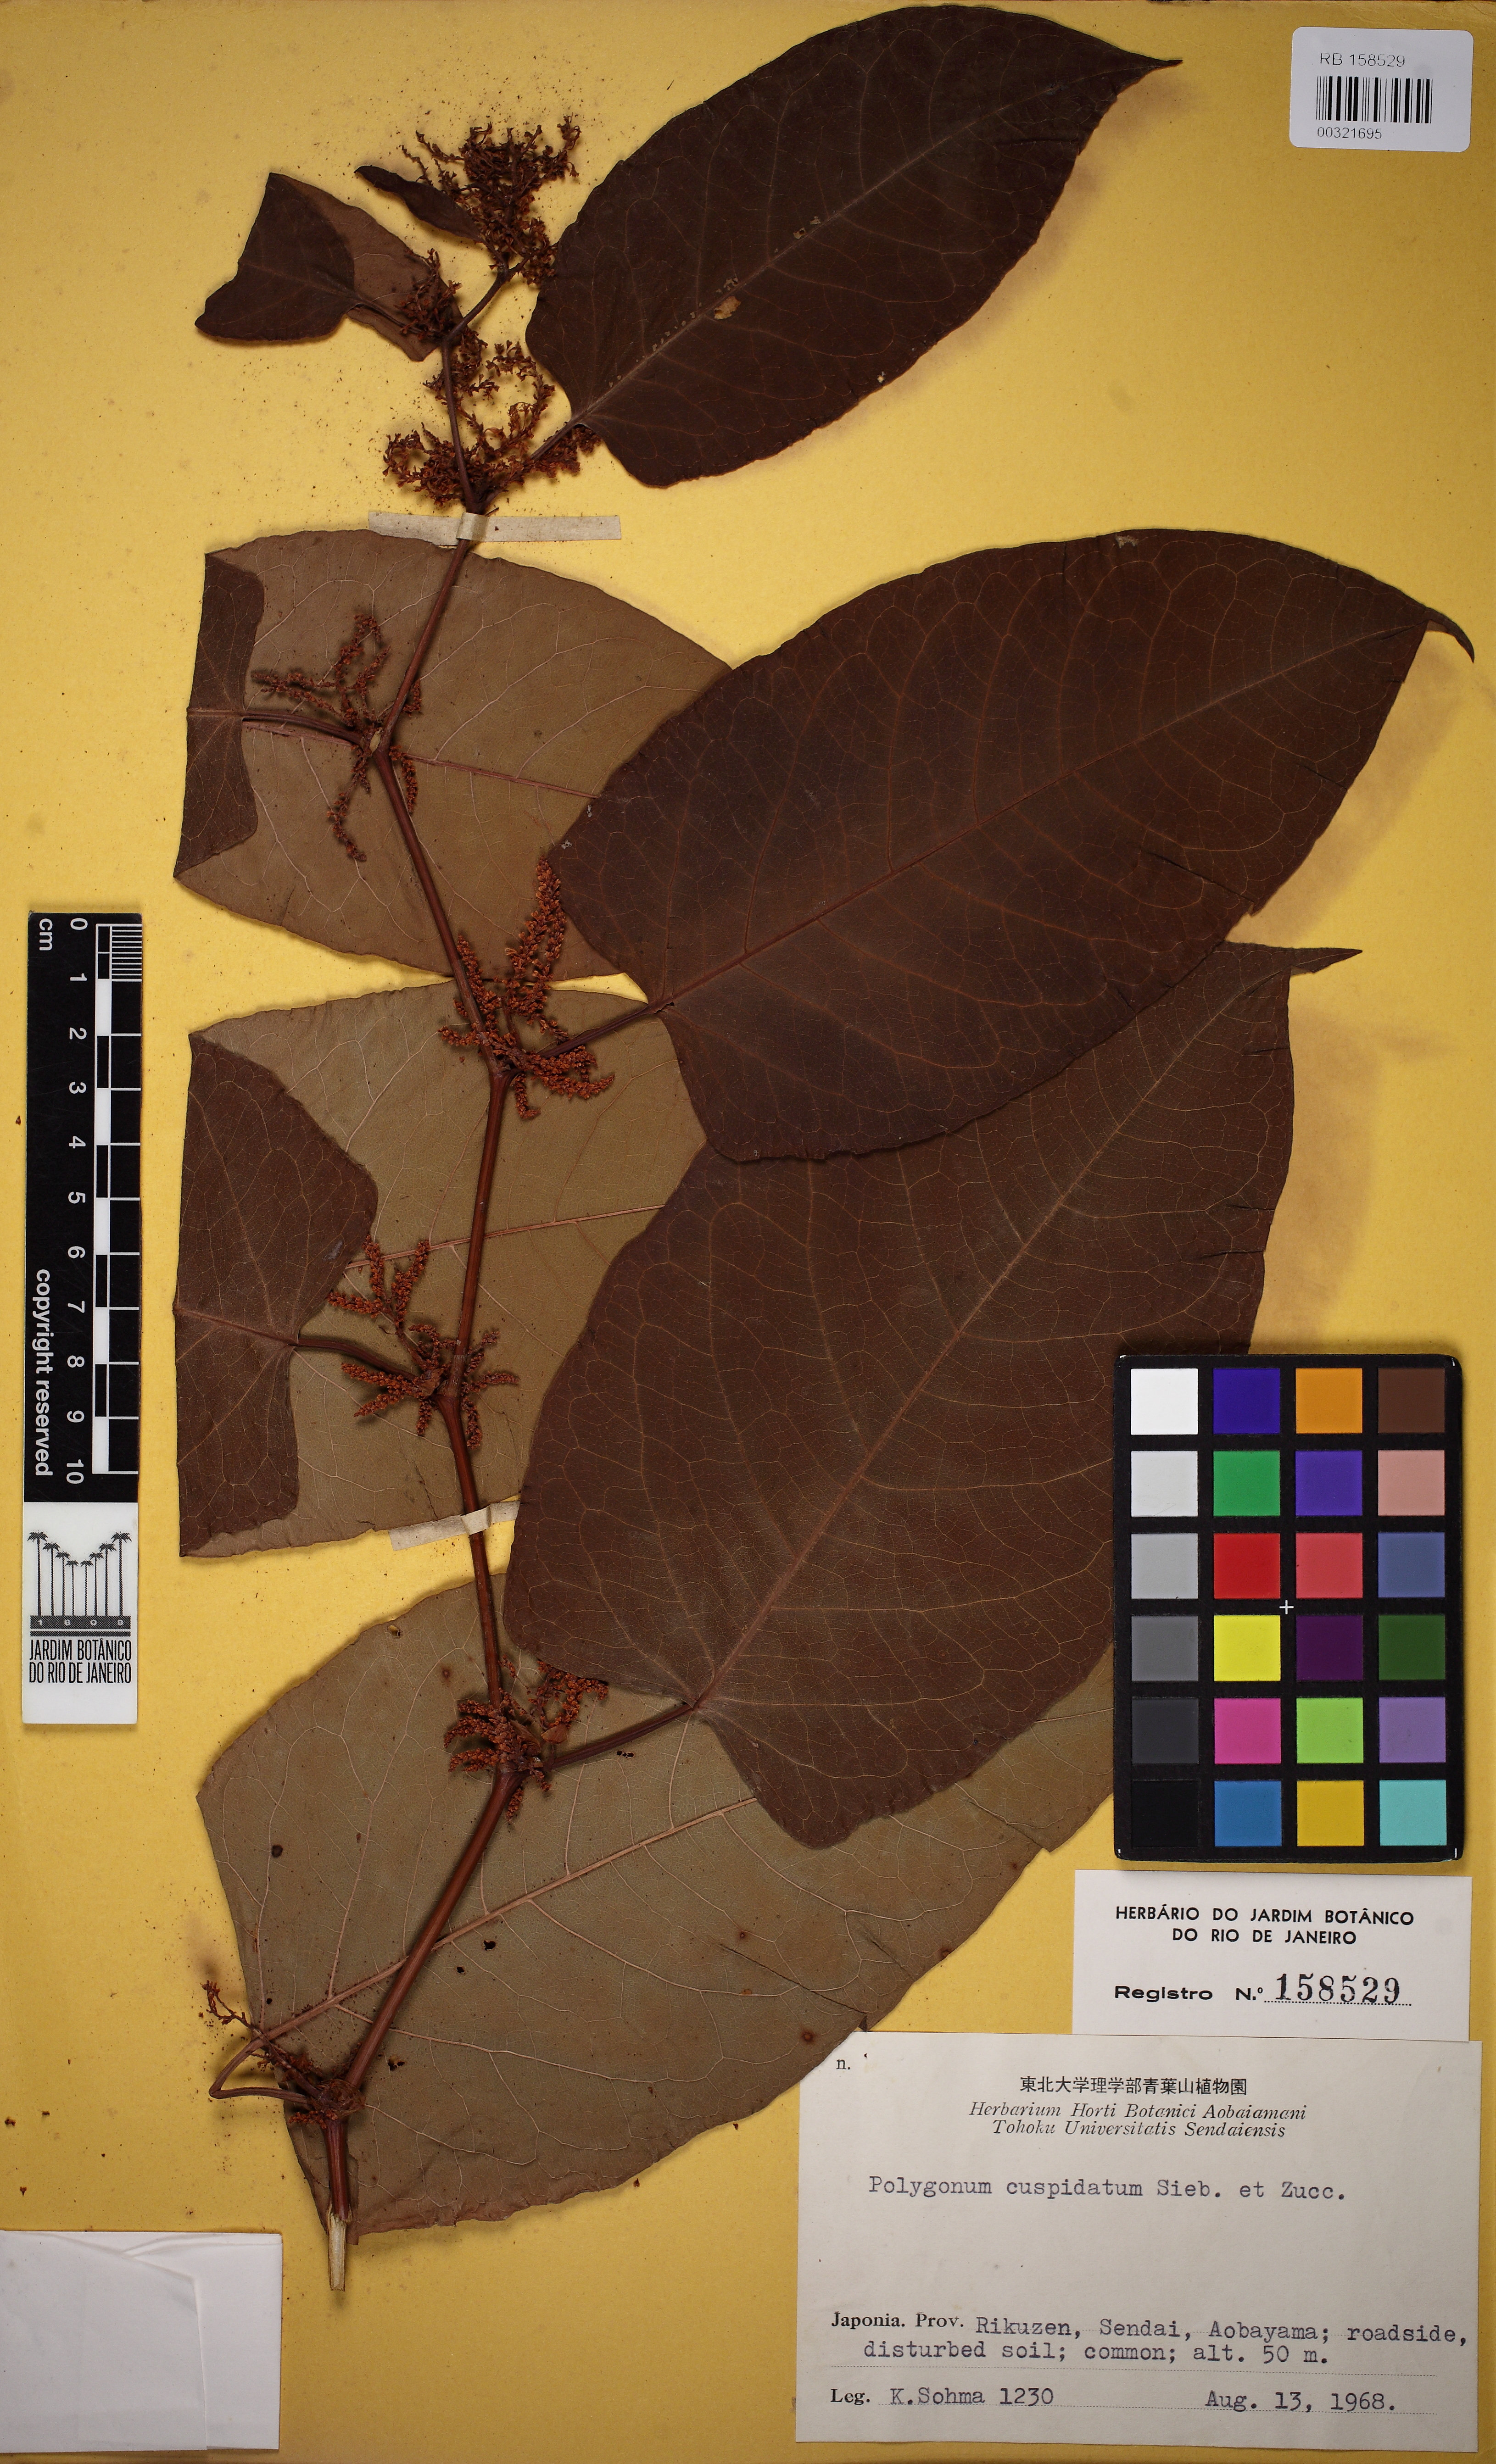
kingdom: Plantae
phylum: Tracheophyta
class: Magnoliopsida
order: Caryophyllales
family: Polygonaceae
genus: Reynoutria
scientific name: Reynoutria japonica
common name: Japanese knotweed
